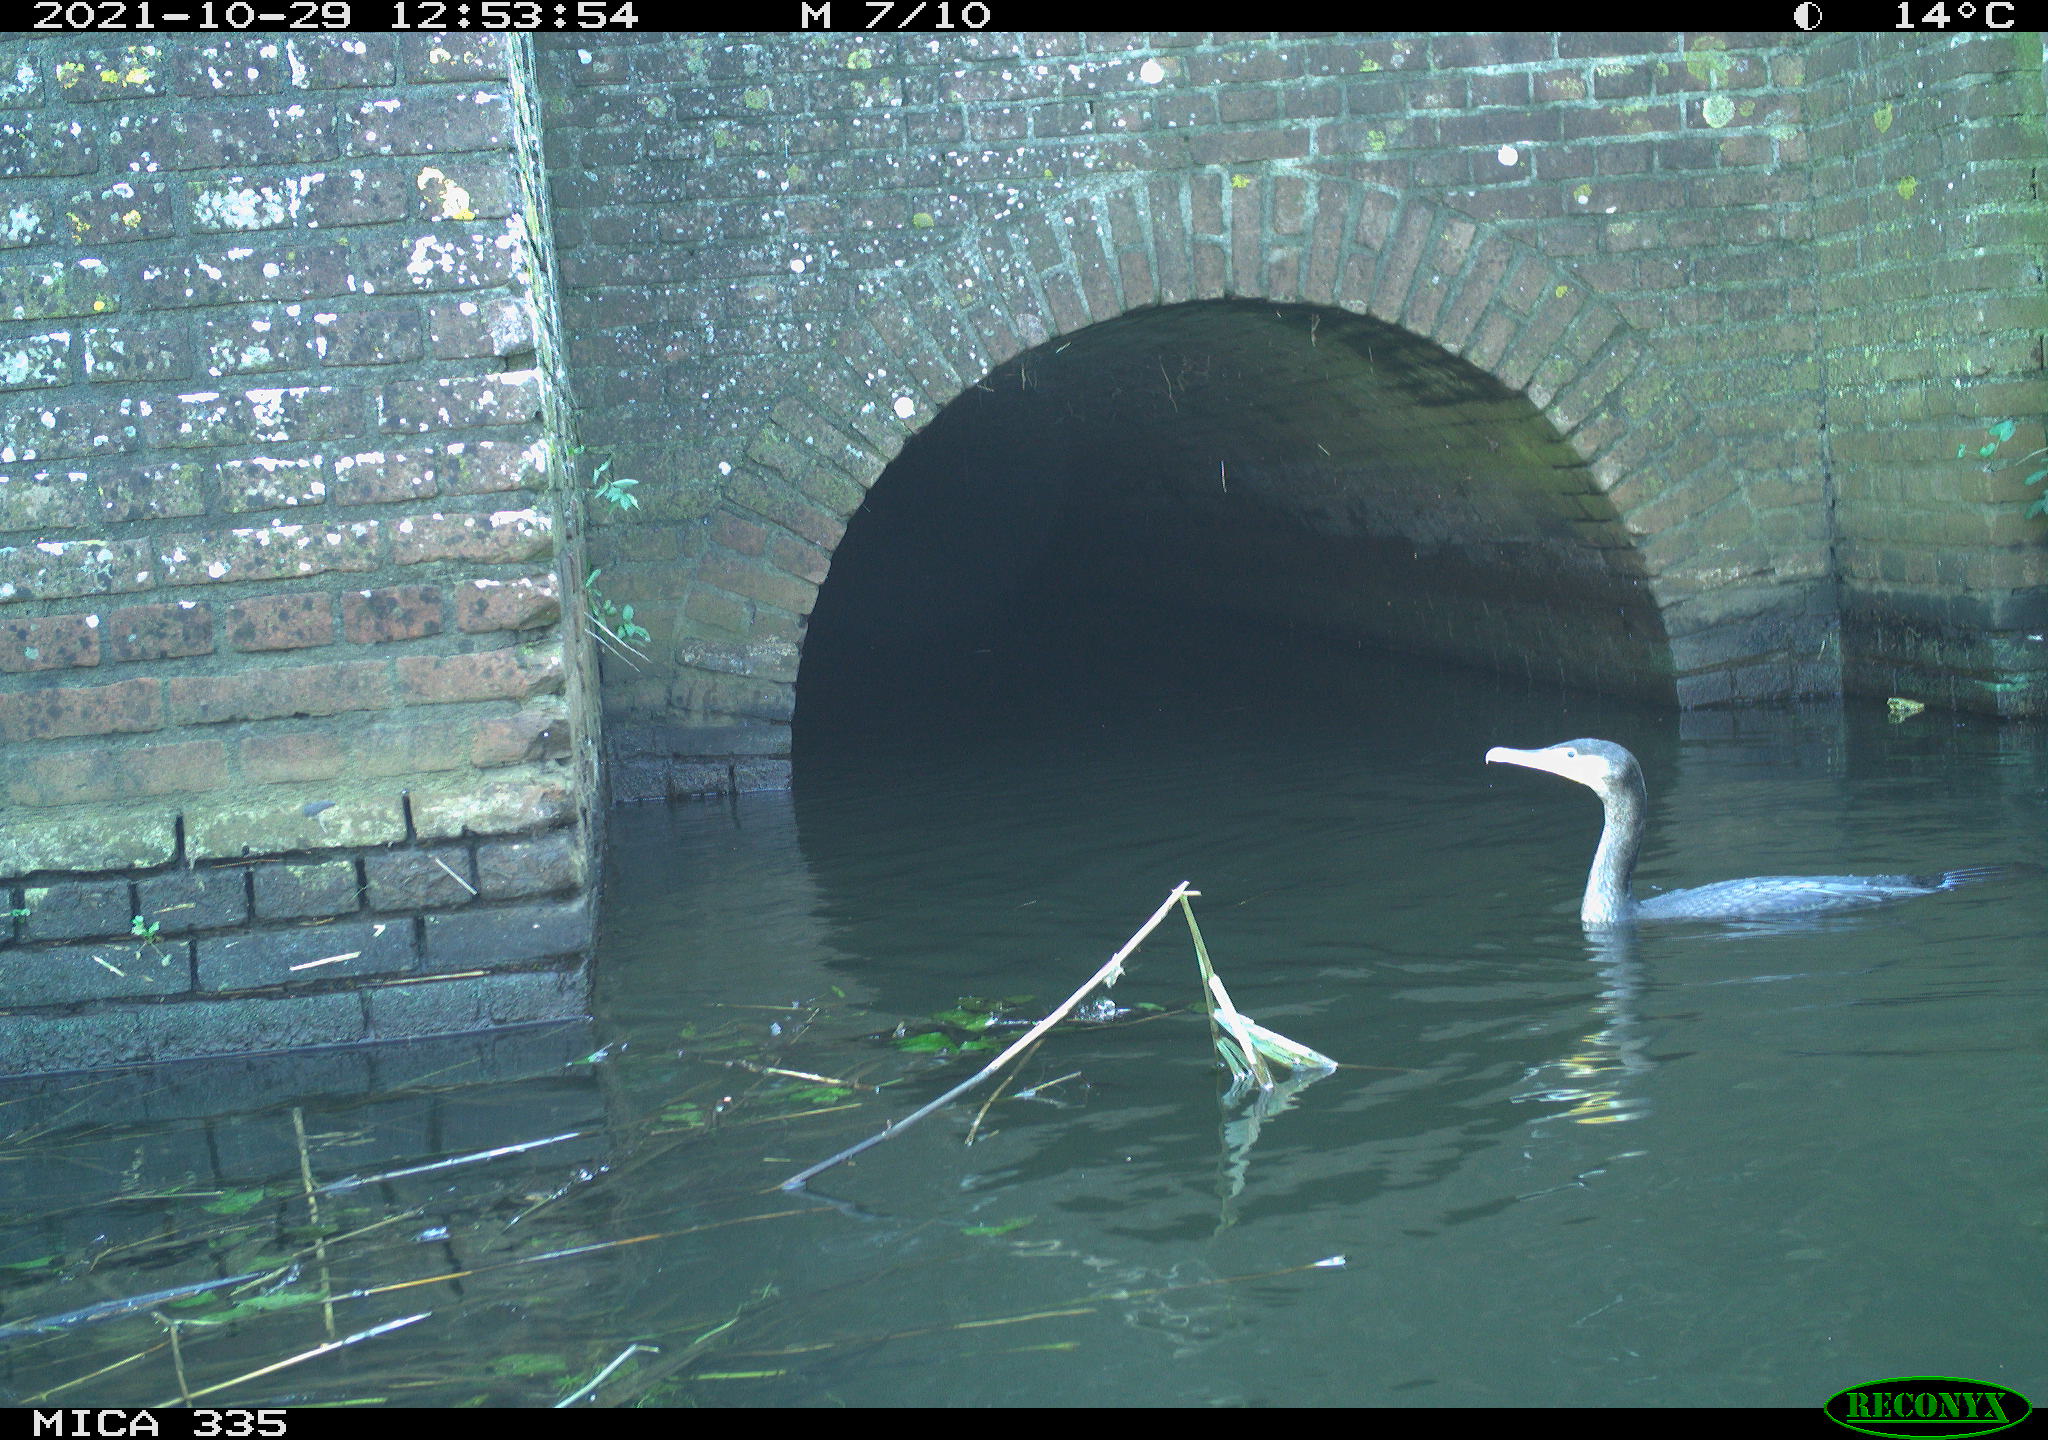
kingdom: Animalia
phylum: Chordata
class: Aves
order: Anseriformes
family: Anatidae
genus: Anas
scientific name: Anas platyrhynchos
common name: Mallard
